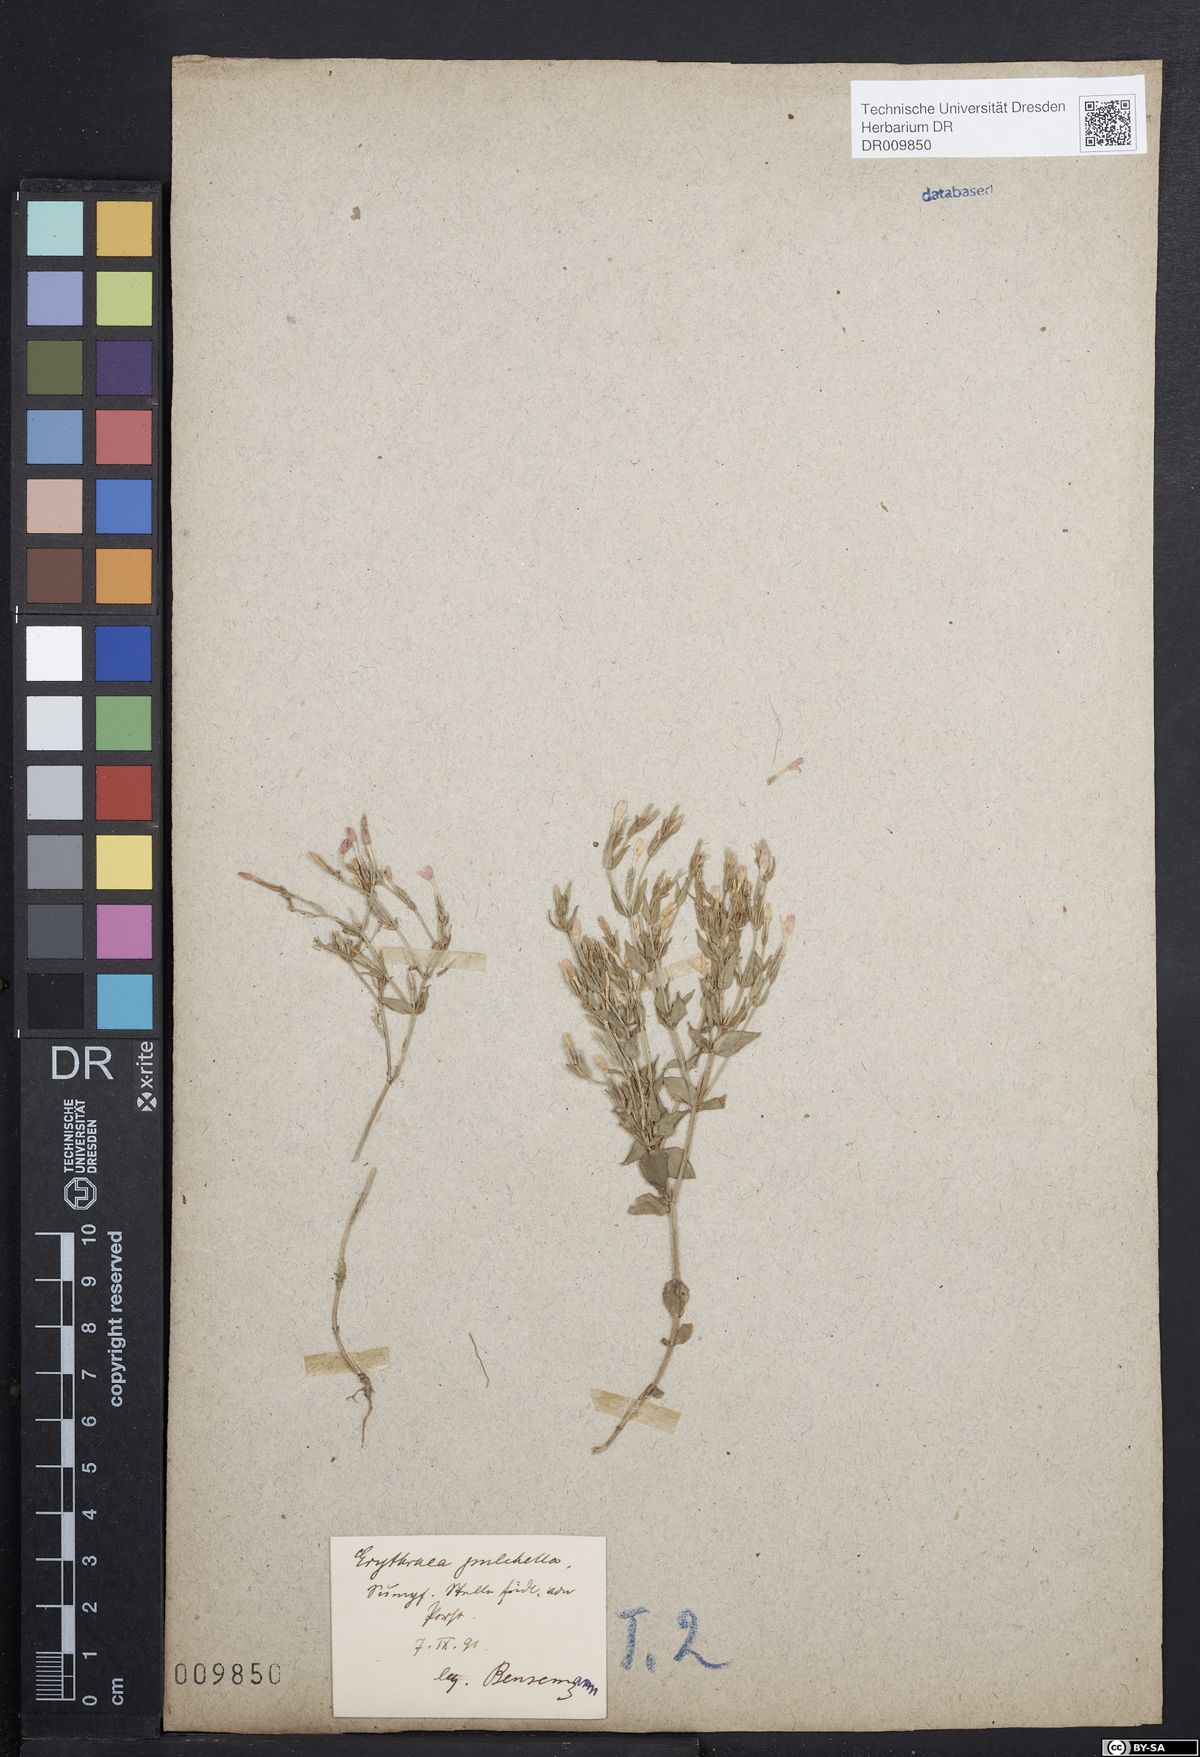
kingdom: Plantae
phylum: Tracheophyta
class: Magnoliopsida
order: Gentianales
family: Gentianaceae
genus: Centaurium
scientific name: Centaurium pulchellum
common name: Lesser centaury
